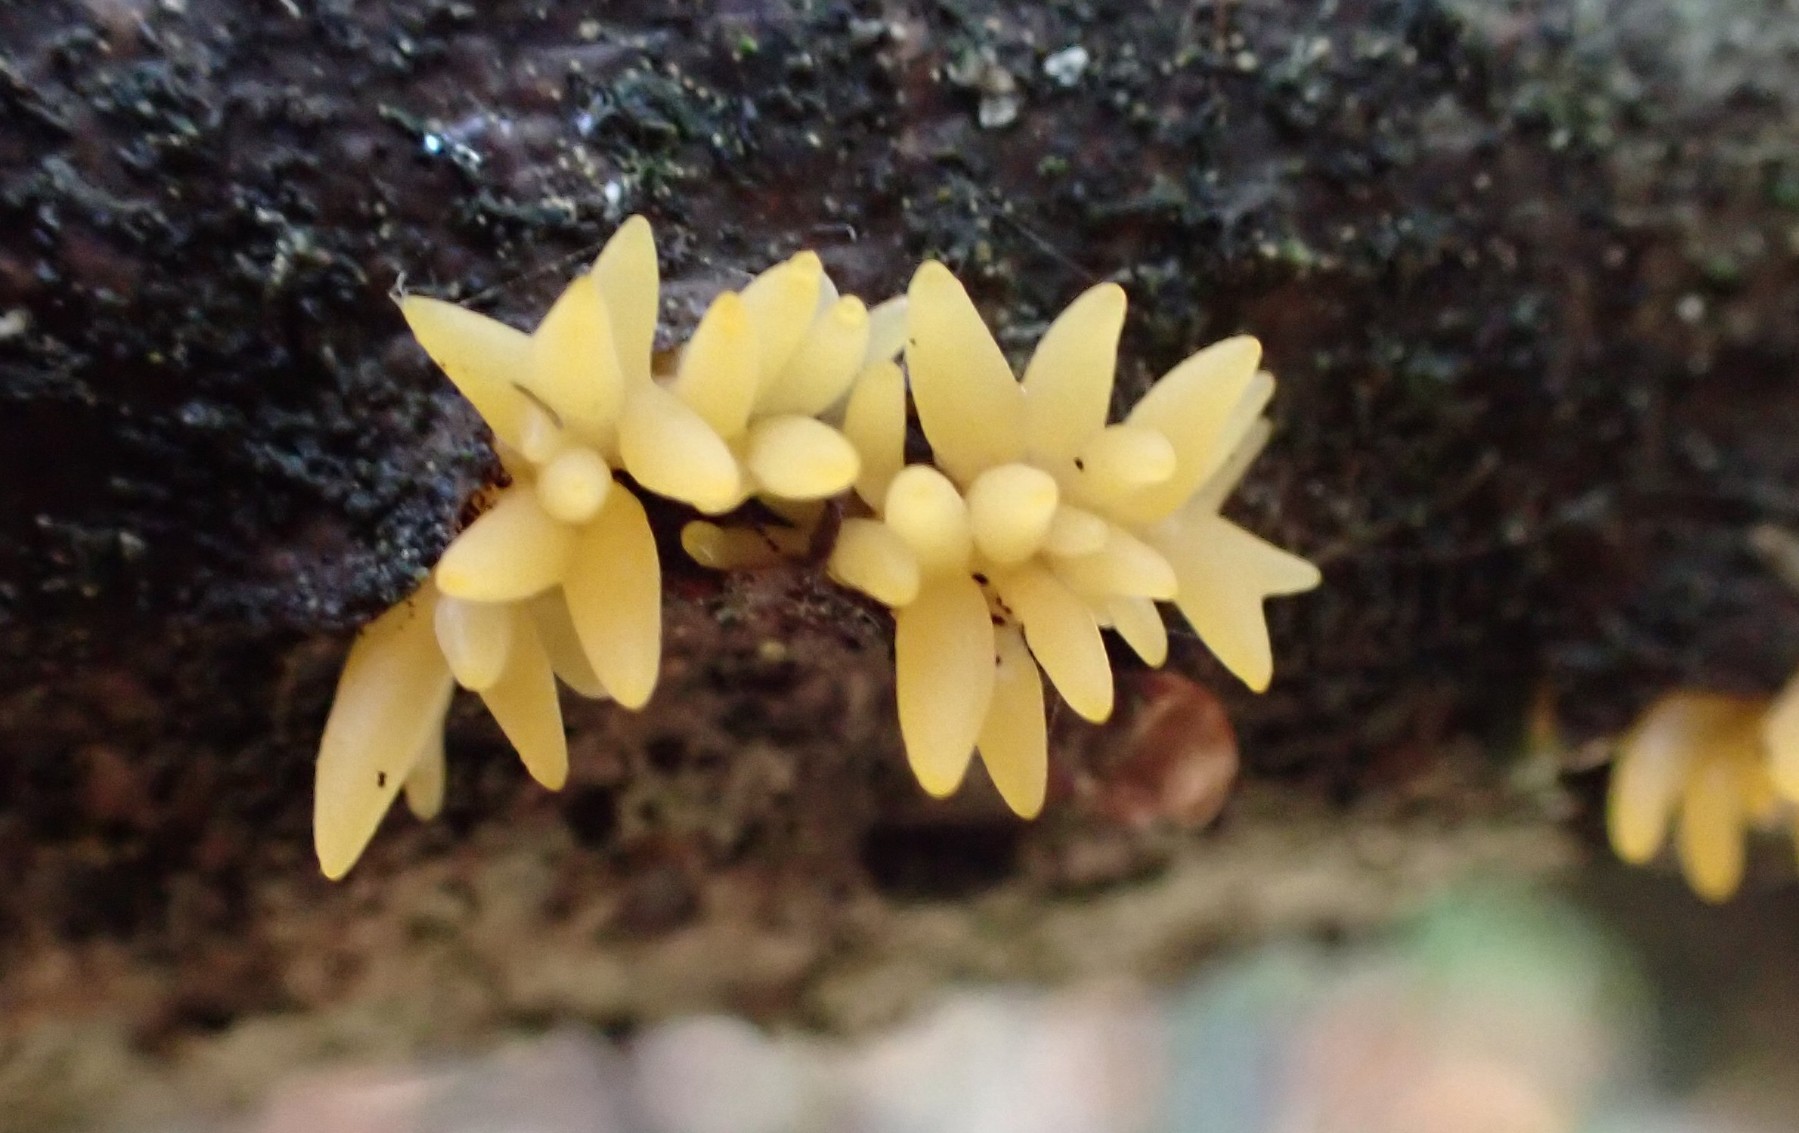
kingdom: Fungi
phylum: Basidiomycota
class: Dacrymycetes
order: Dacrymycetales
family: Dacrymycetaceae
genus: Calocera
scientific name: Calocera cornea
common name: liden guldgaffel
